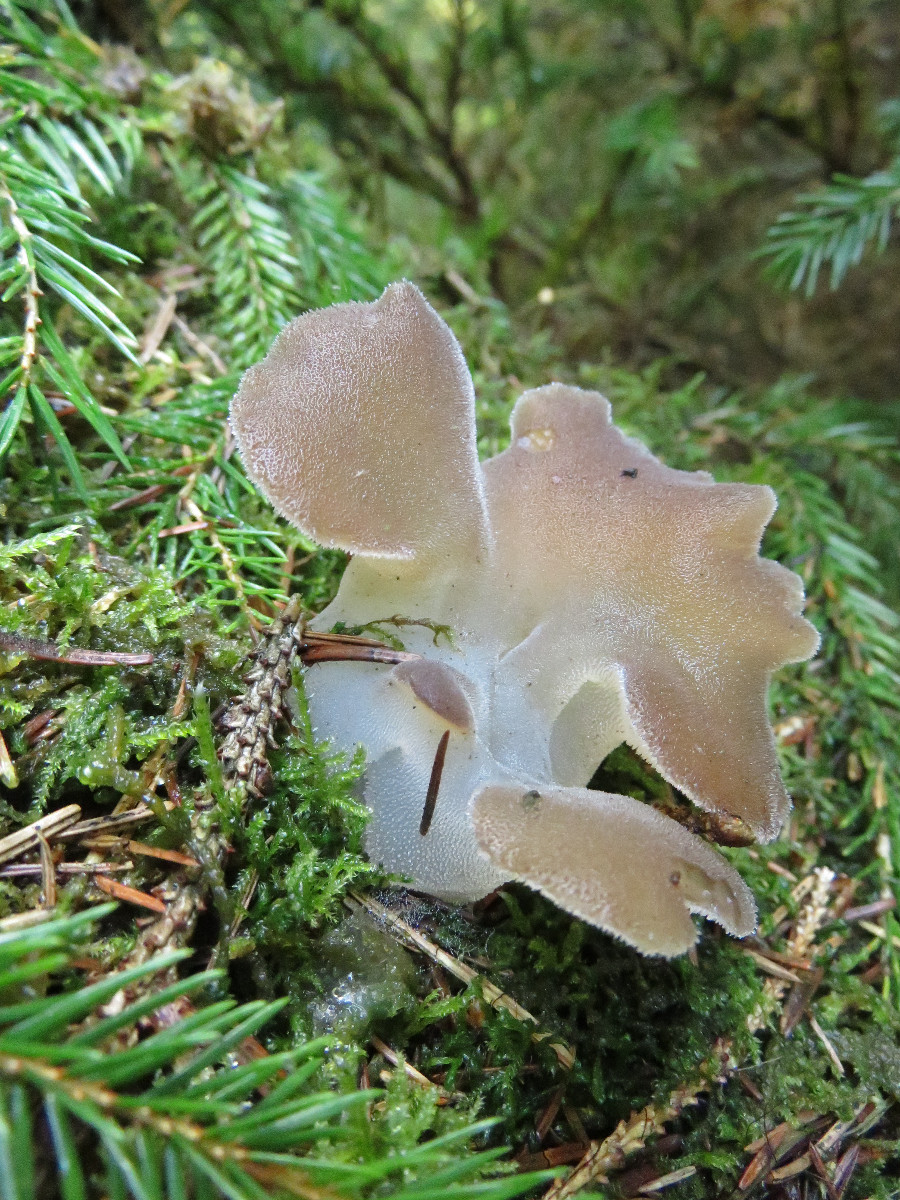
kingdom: Fungi
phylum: Basidiomycota
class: Agaricomycetes
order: Auriculariales
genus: Pseudohydnum
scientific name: Pseudohydnum gelatinosum
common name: bævretand
